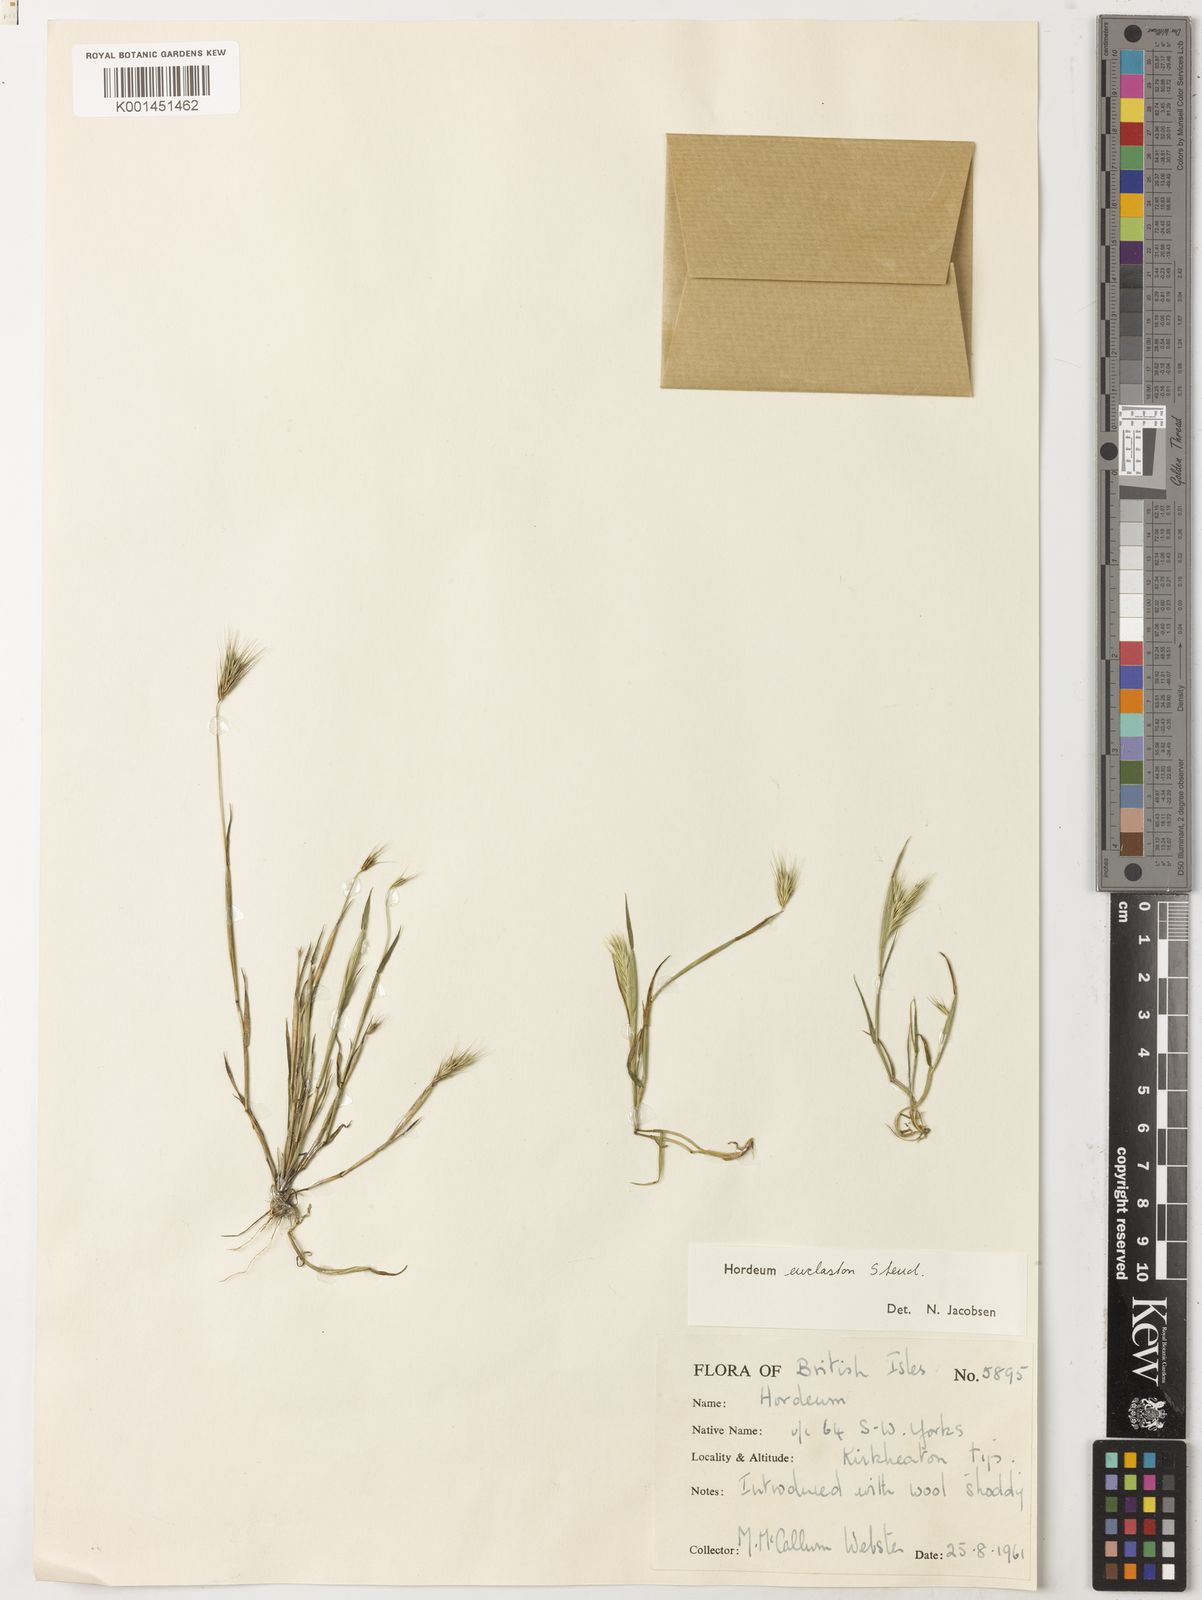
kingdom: Plantae
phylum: Tracheophyta
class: Liliopsida
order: Poales
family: Poaceae
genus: Hordeum
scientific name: Hordeum euclaston
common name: Argentine barley
